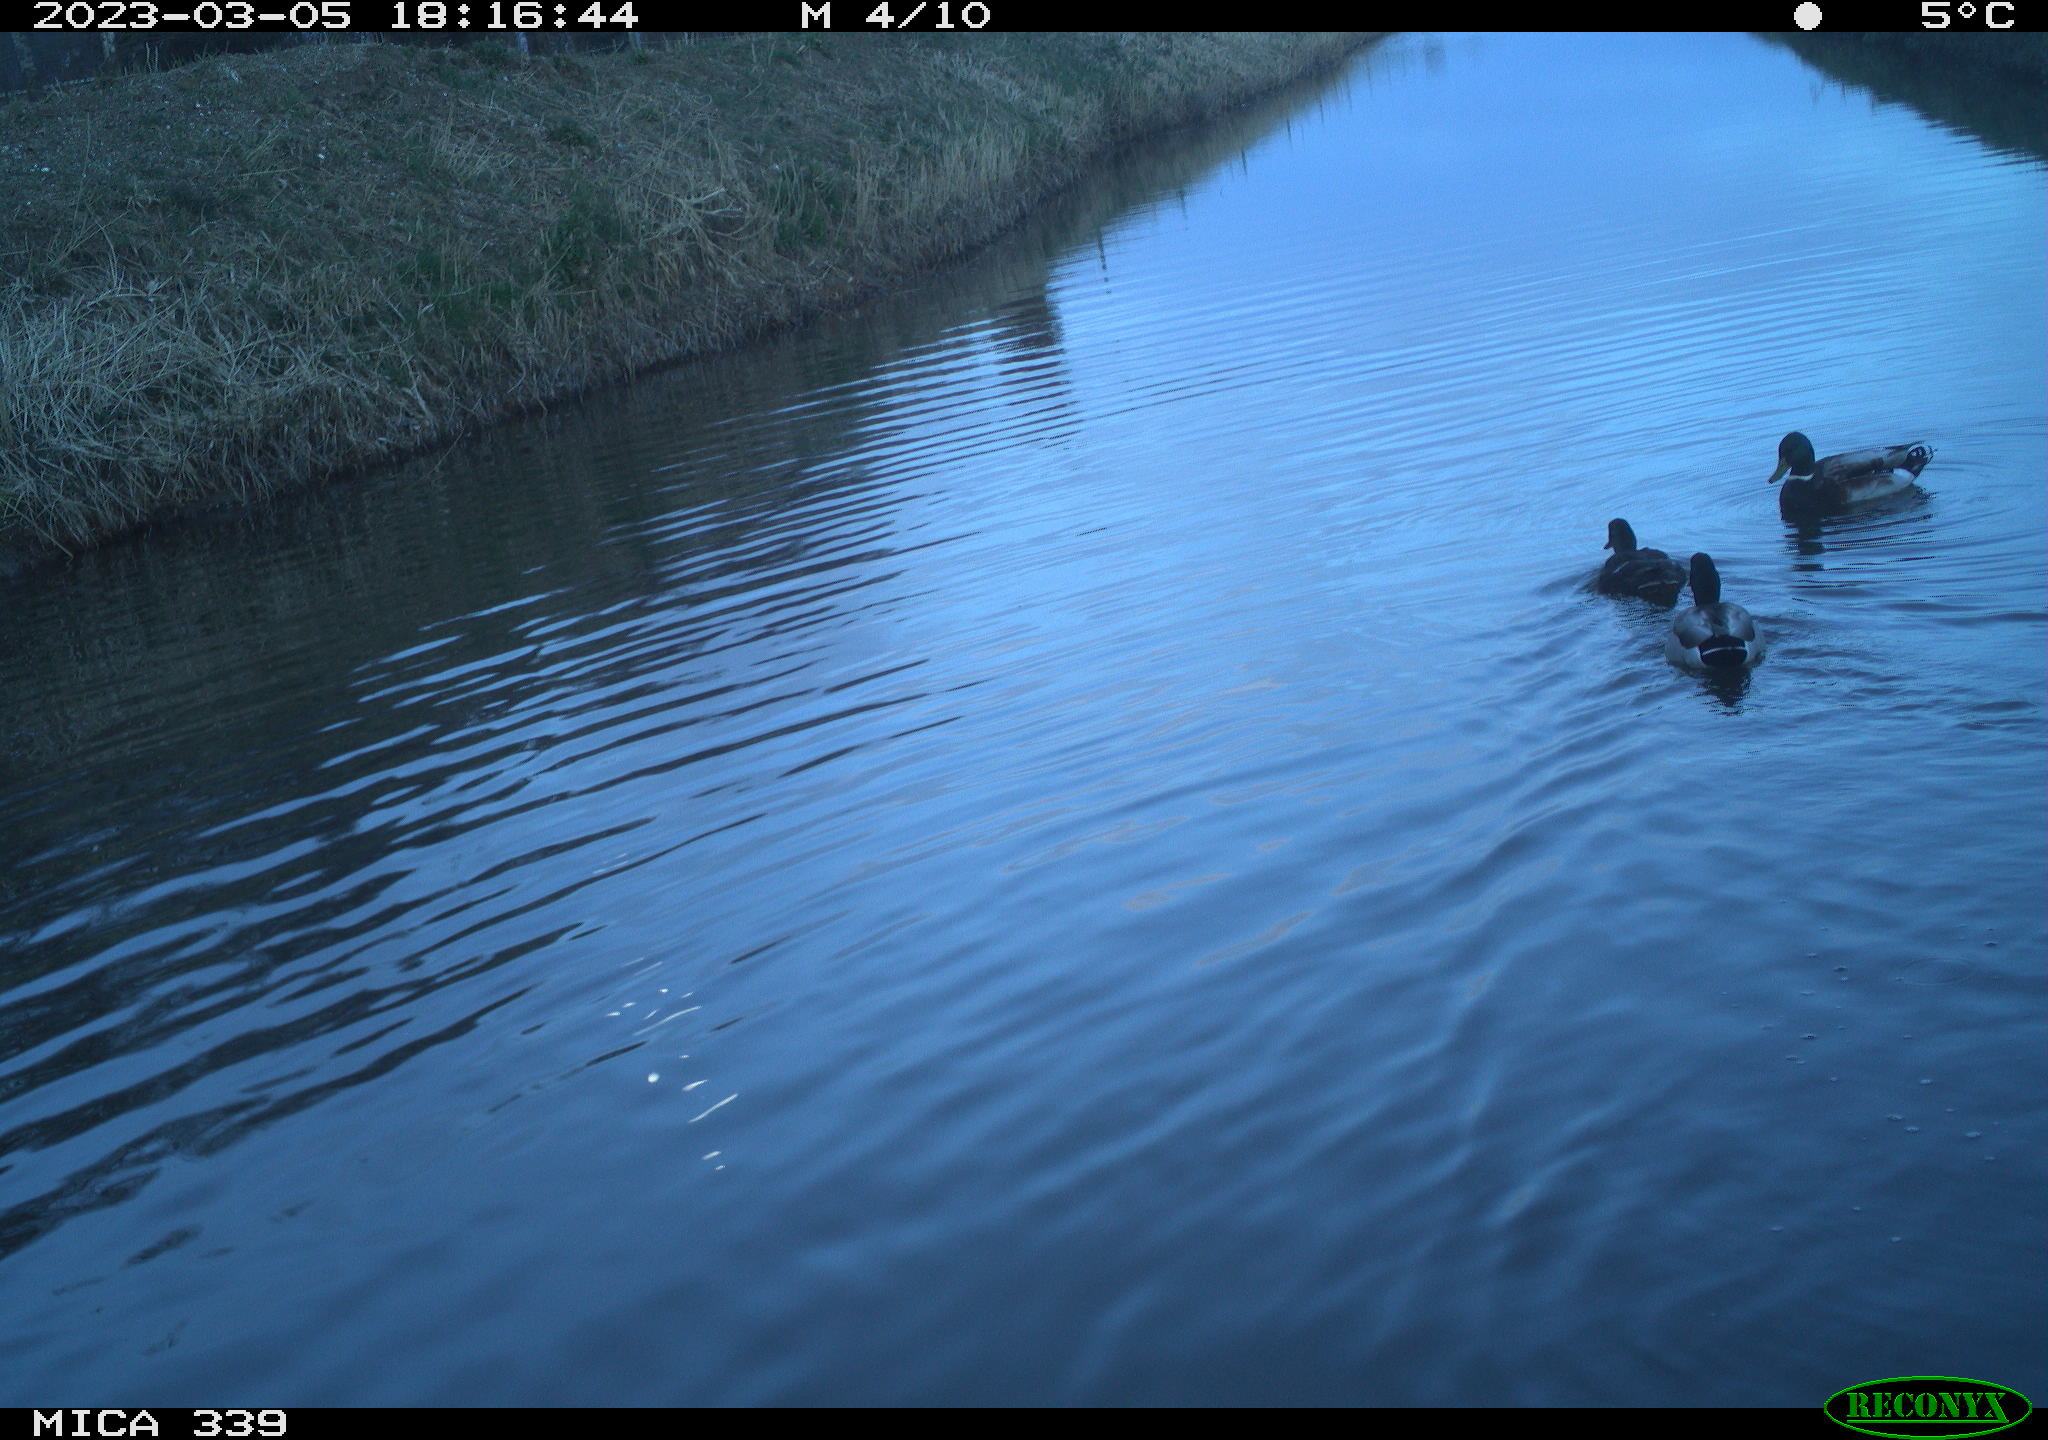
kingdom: Animalia
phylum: Chordata
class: Aves
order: Anseriformes
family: Anatidae
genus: Anas
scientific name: Anas
